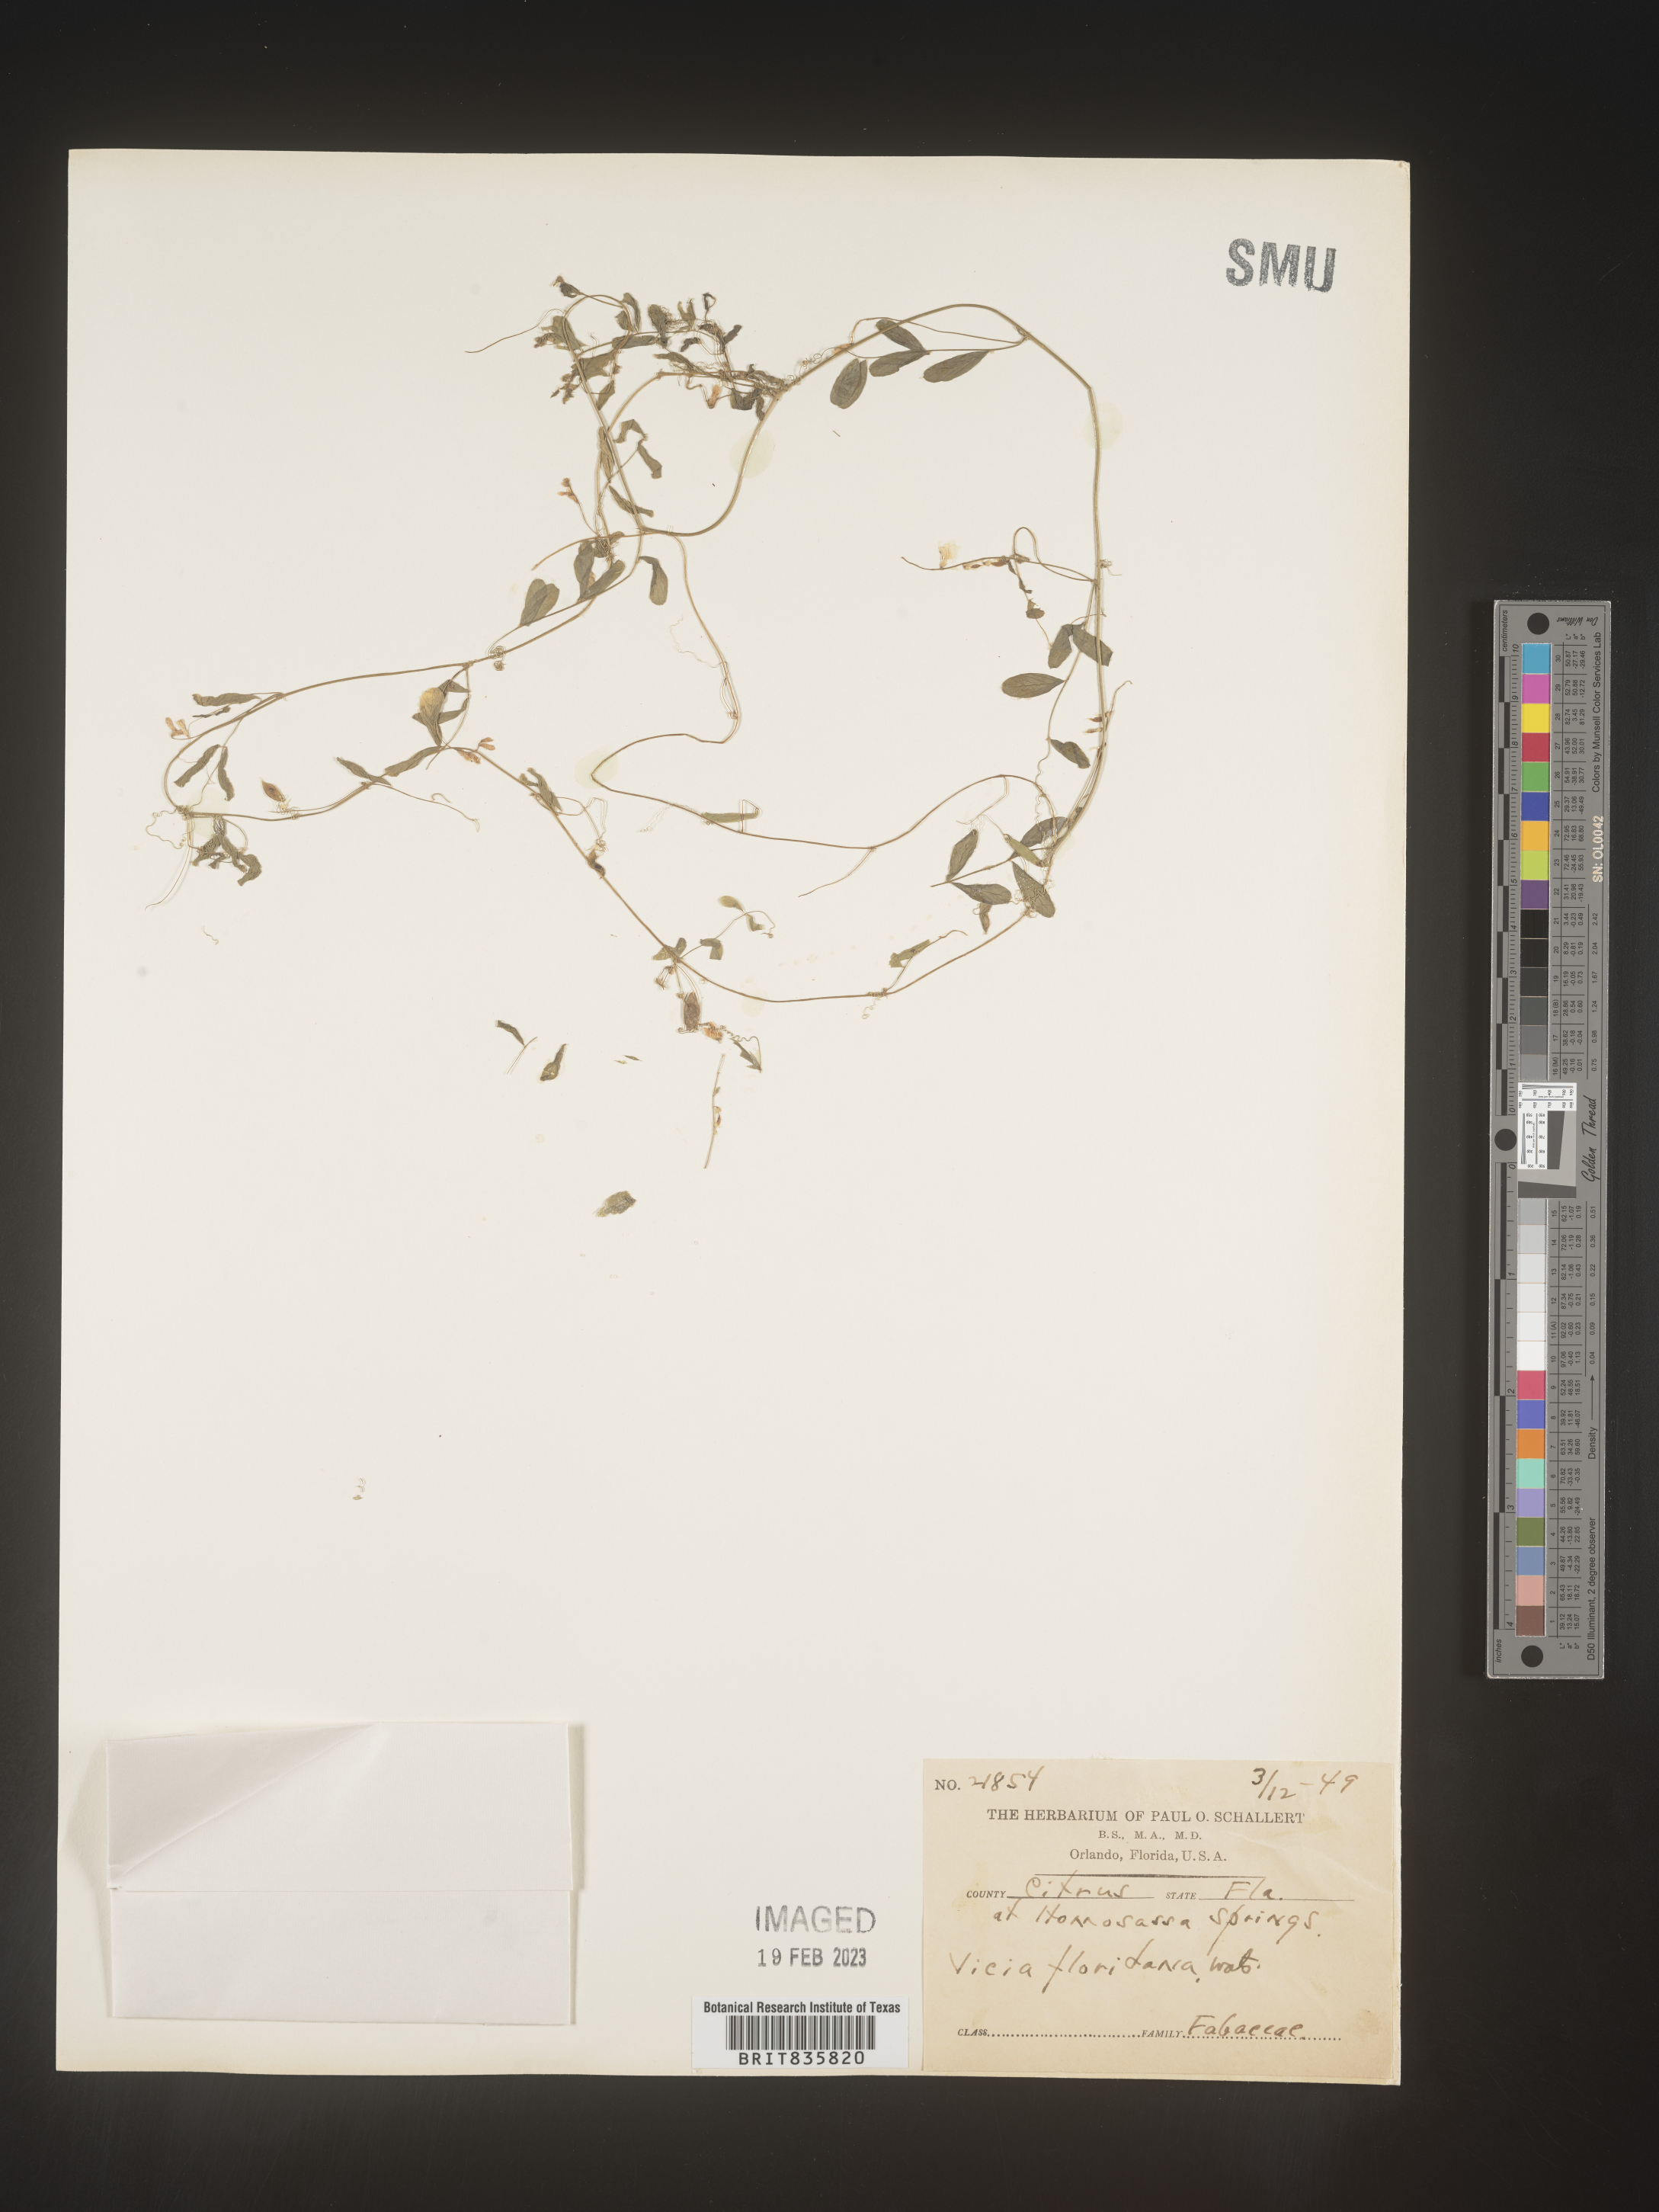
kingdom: Plantae
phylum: Tracheophyta
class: Magnoliopsida
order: Fabales
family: Fabaceae
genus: Vicia
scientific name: Vicia
